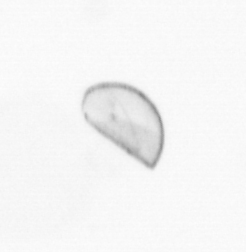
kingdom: Chromista
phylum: Ochrophyta
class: Bacillariophyceae
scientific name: Bacillariophyceae
